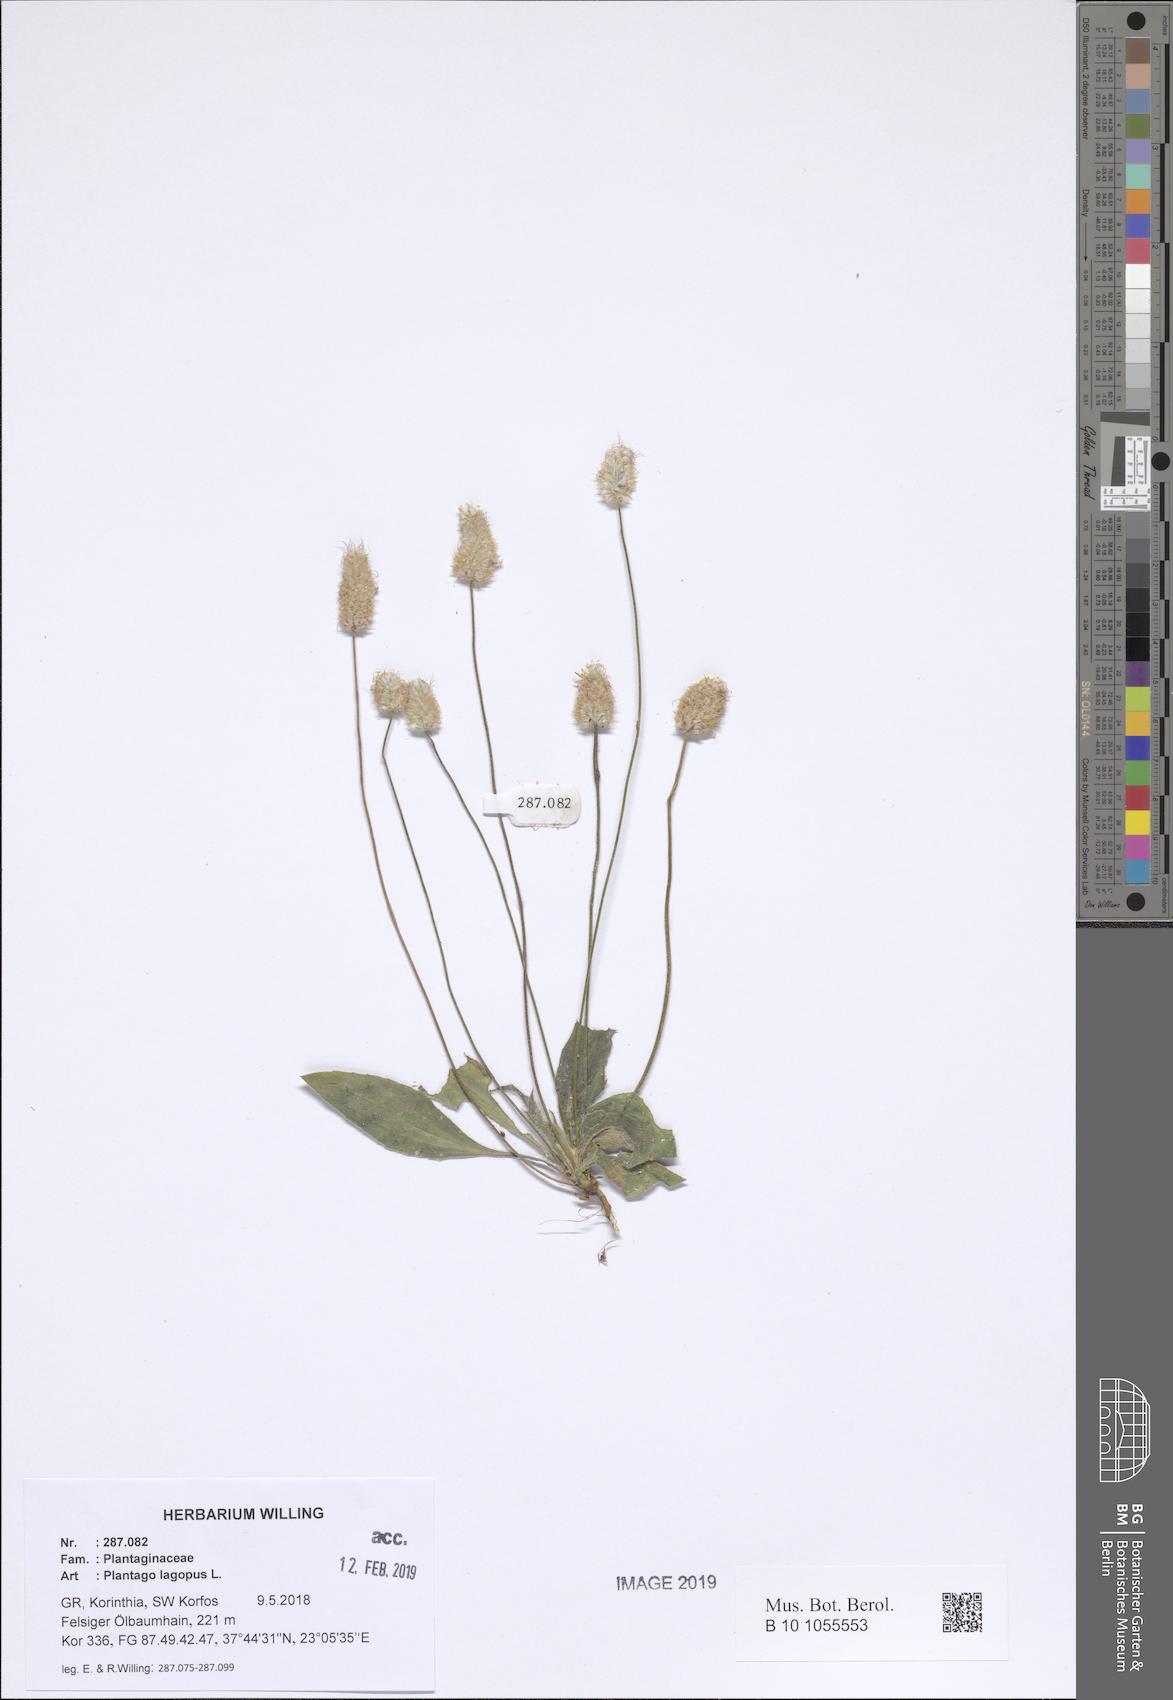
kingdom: Plantae
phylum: Tracheophyta
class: Magnoliopsida
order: Lamiales
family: Plantaginaceae
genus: Plantago
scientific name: Plantago lagopus
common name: Hare-foot plantain
